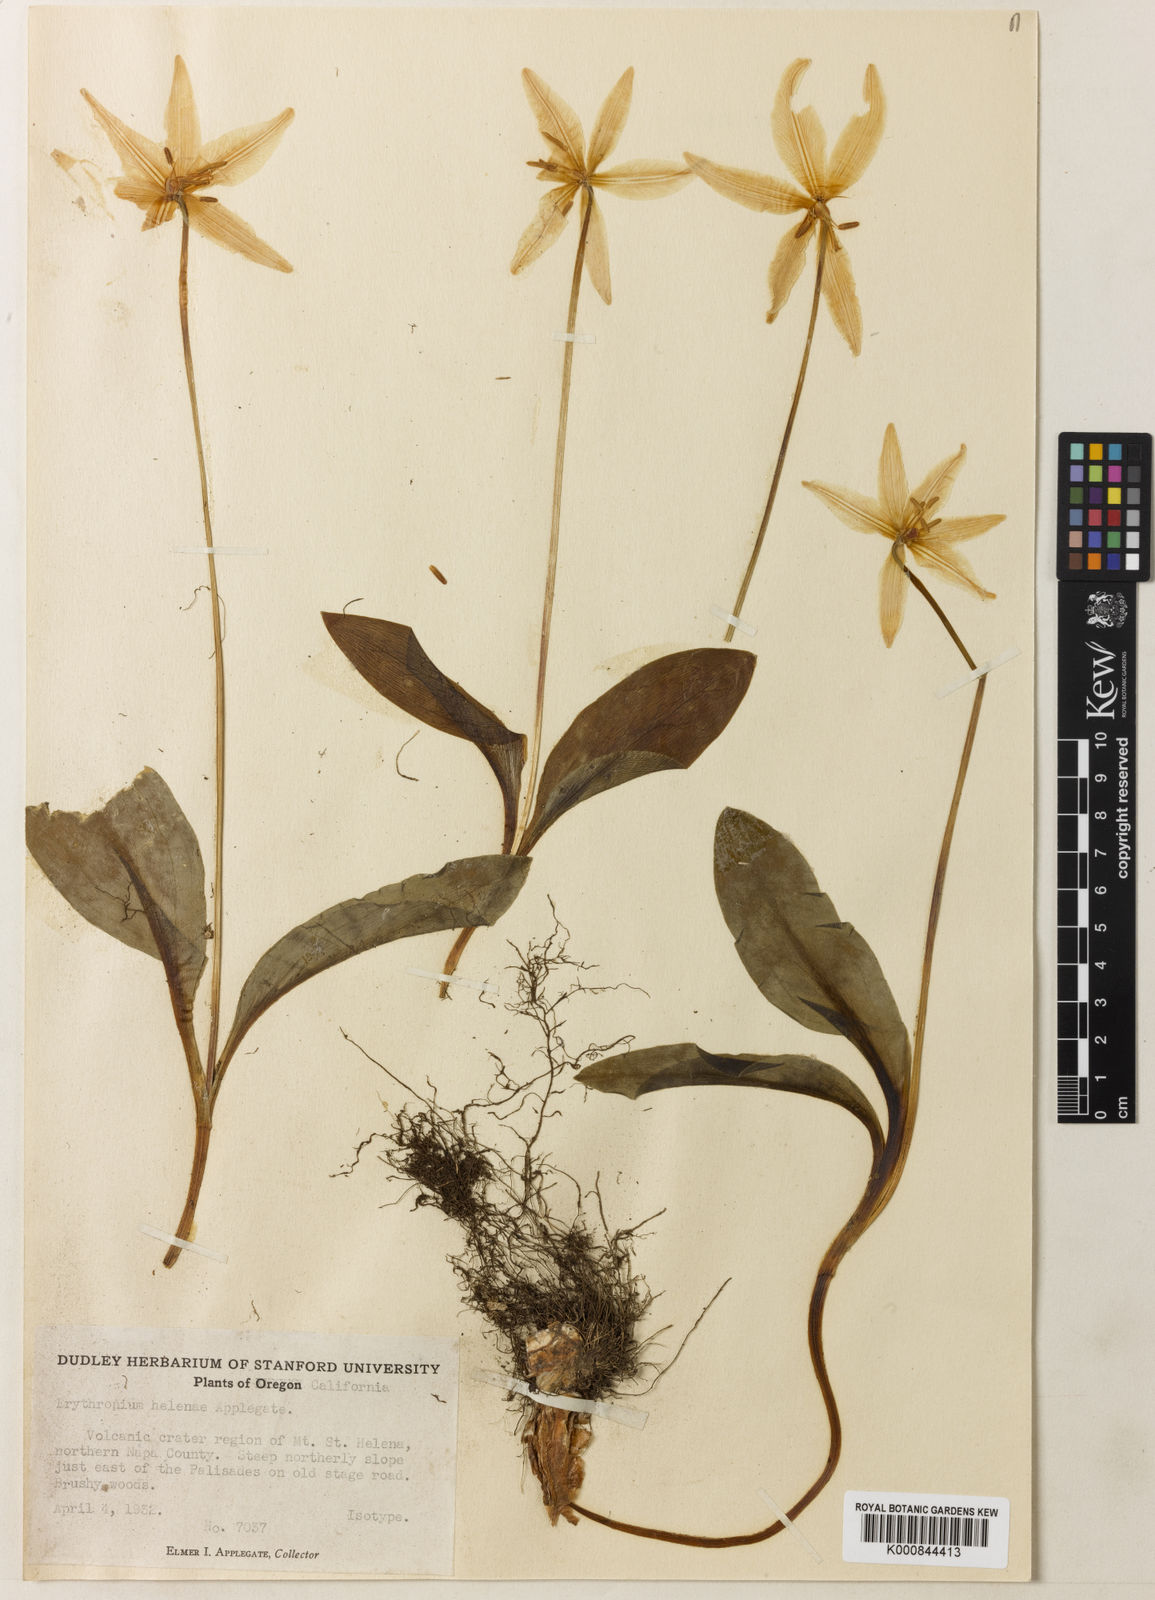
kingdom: Plantae
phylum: Tracheophyta
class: Liliopsida
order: Liliales
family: Liliaceae
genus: Erythronium
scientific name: Erythronium helenae
